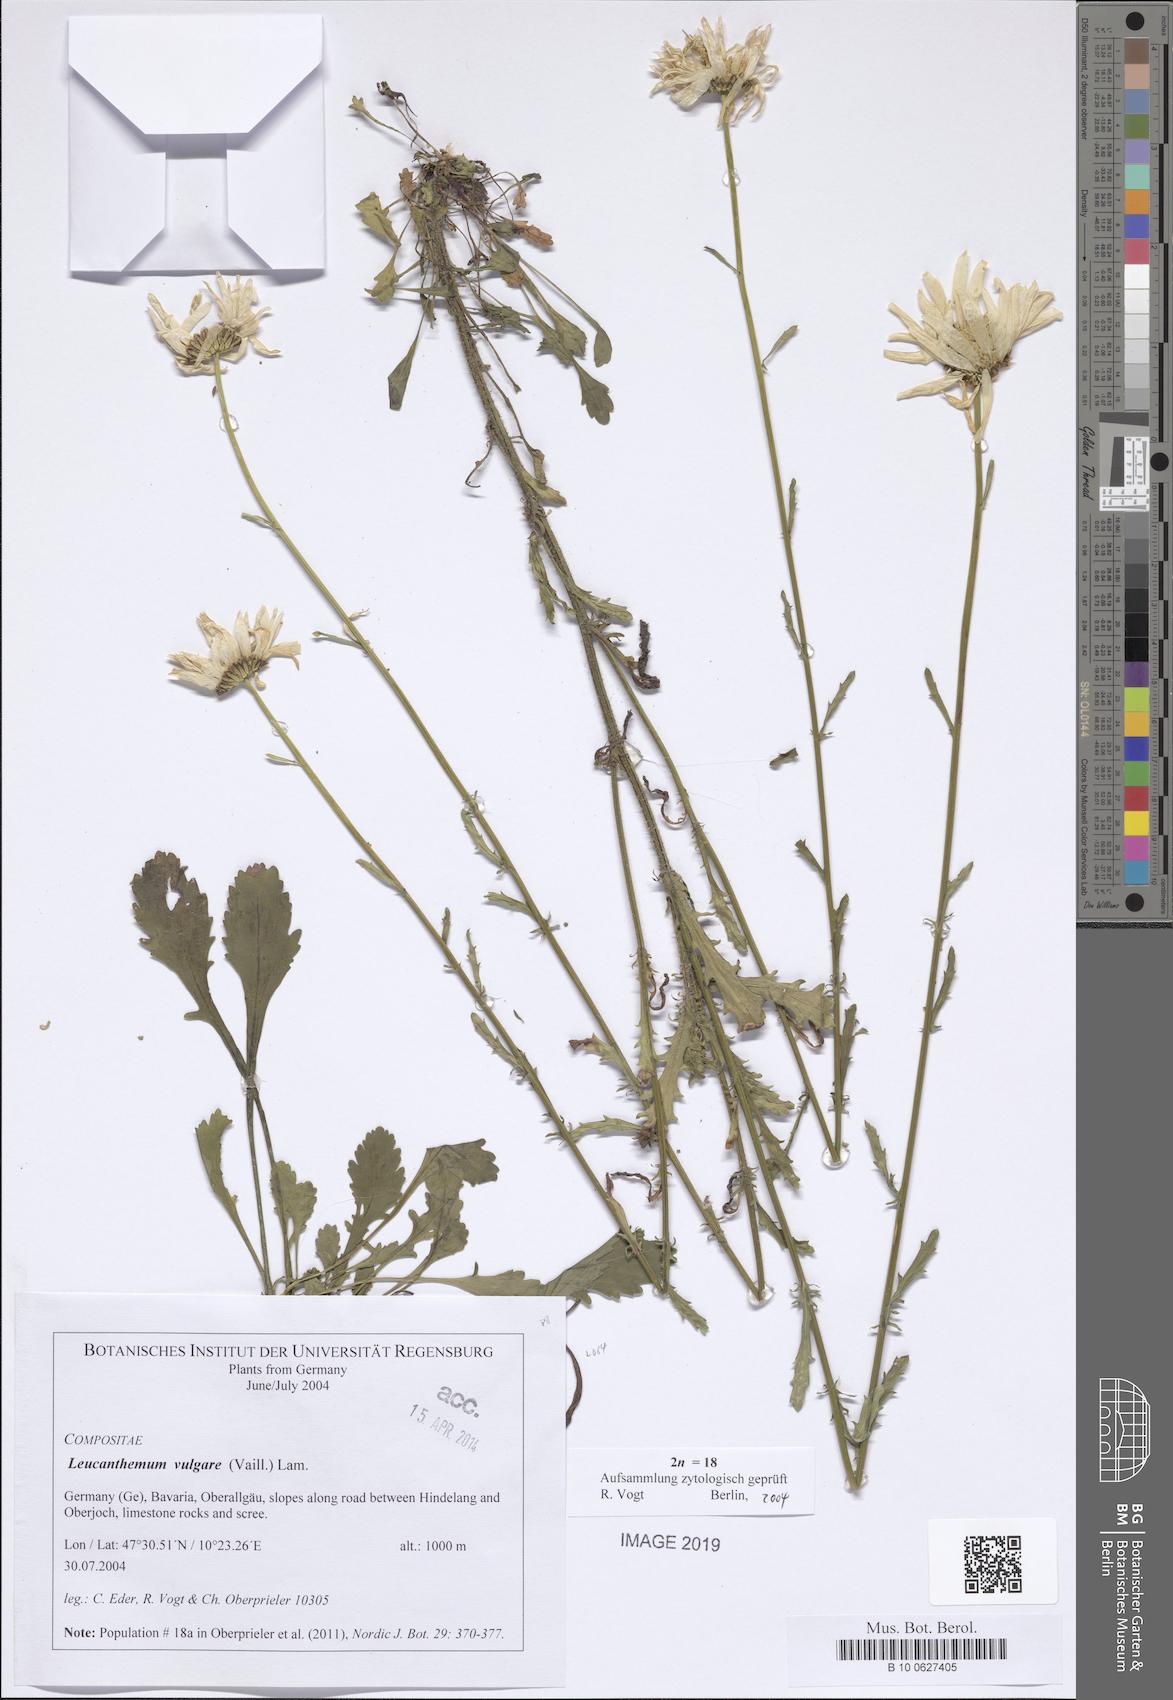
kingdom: Plantae
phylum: Tracheophyta
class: Magnoliopsida
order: Asterales
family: Asteraceae
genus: Leucanthemum
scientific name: Leucanthemum vulgare
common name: Oxeye daisy
